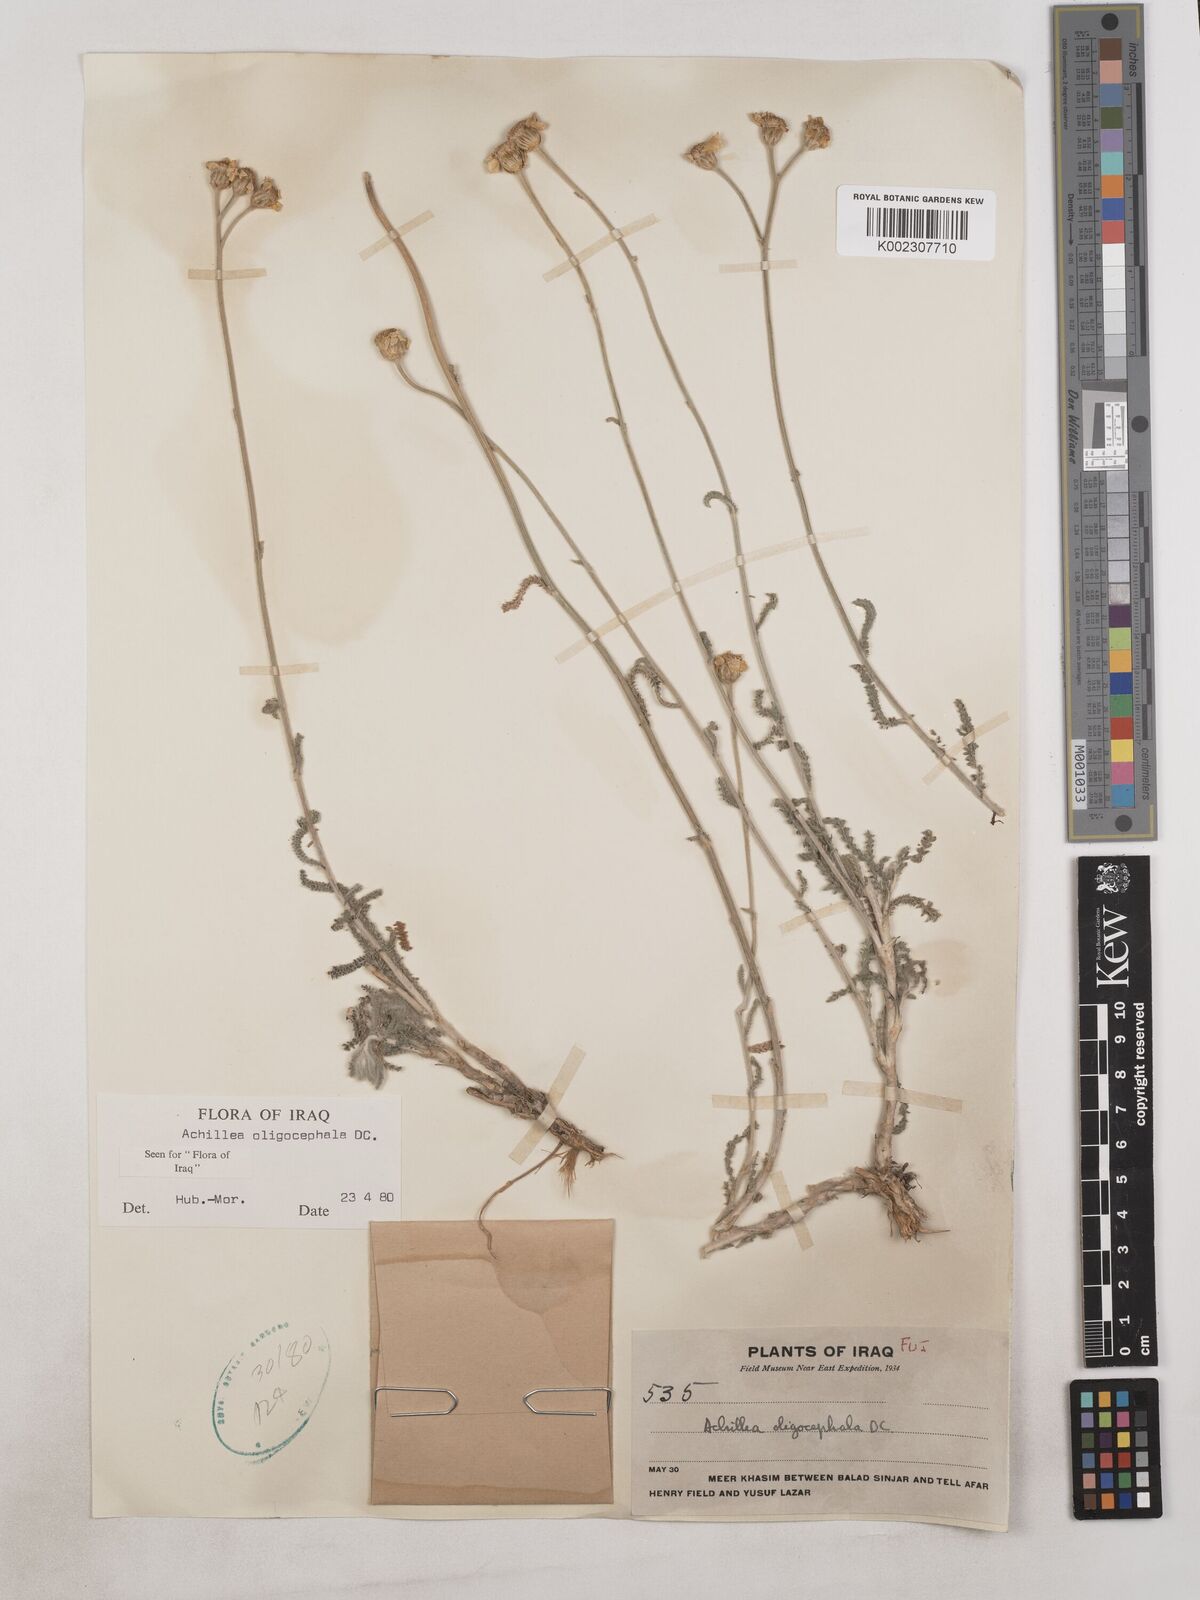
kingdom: Plantae
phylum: Tracheophyta
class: Magnoliopsida
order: Asterales
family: Asteraceae
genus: Achillea
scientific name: Achillea oligocephala
